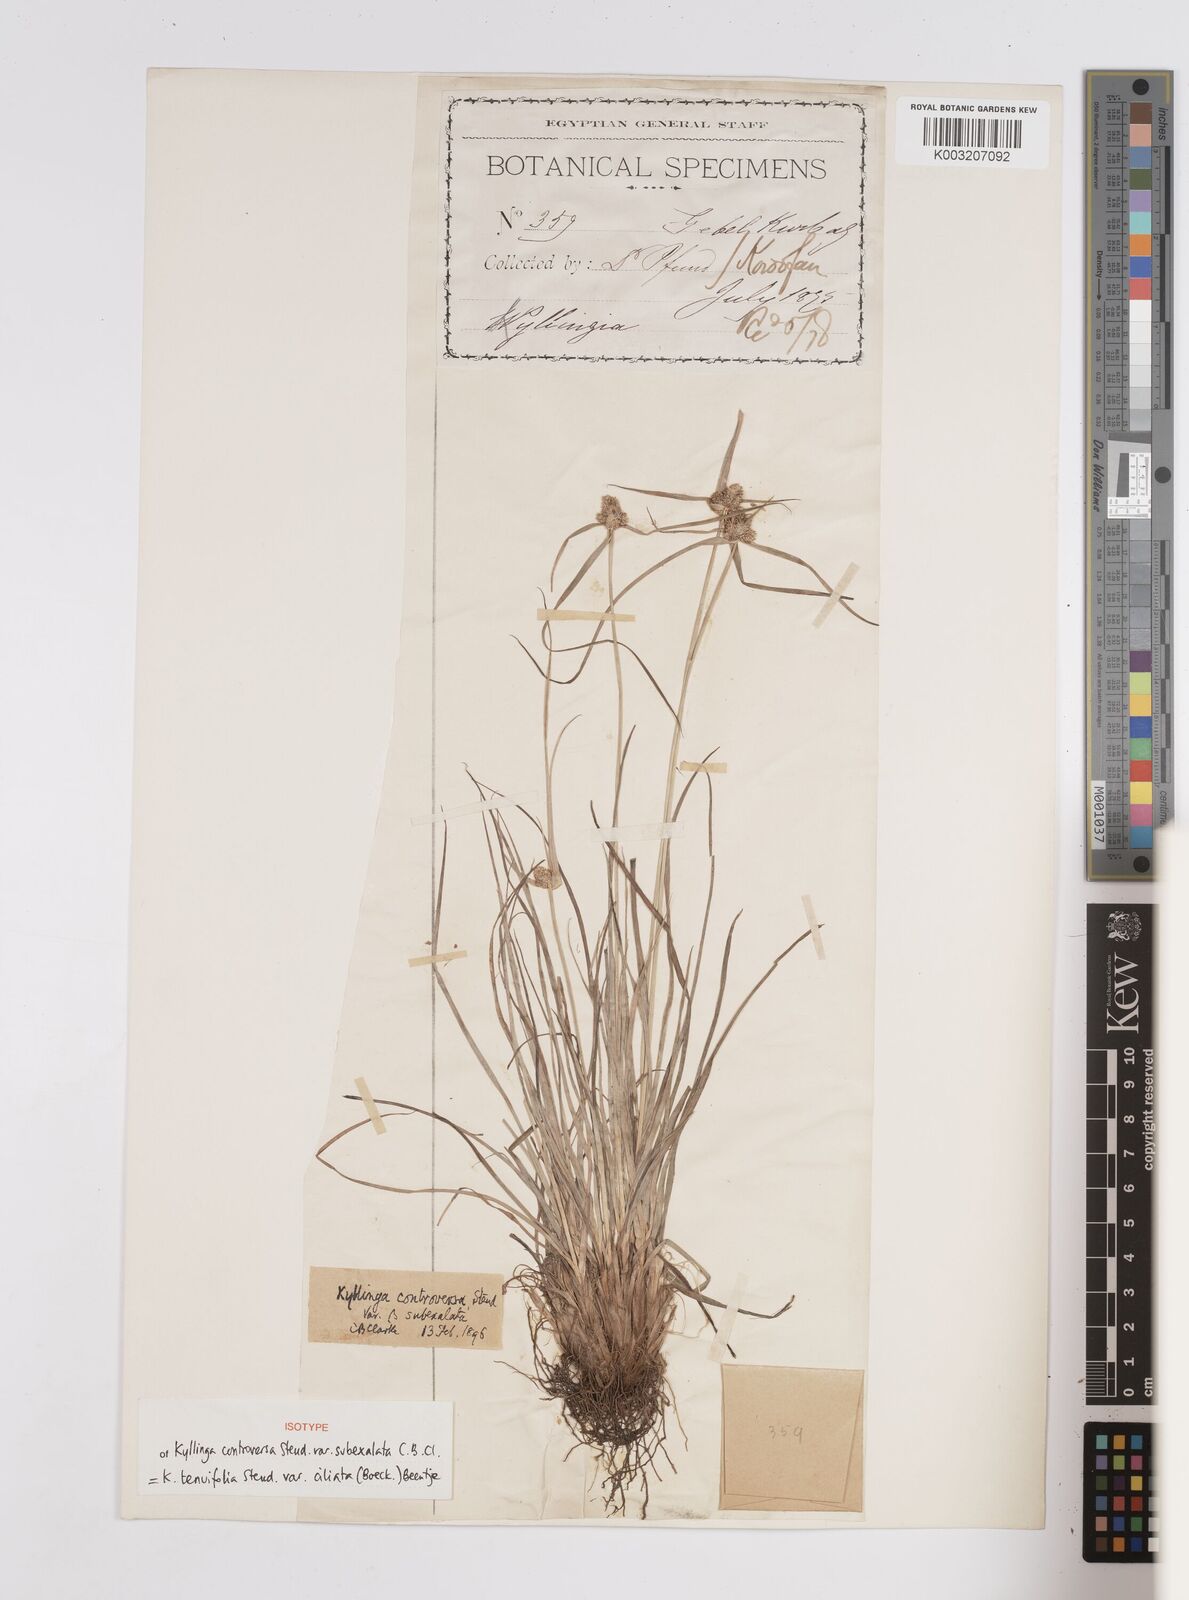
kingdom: Plantae
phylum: Tracheophyta
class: Liliopsida
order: Poales
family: Cyperaceae
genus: Cyperus
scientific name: Cyperus
